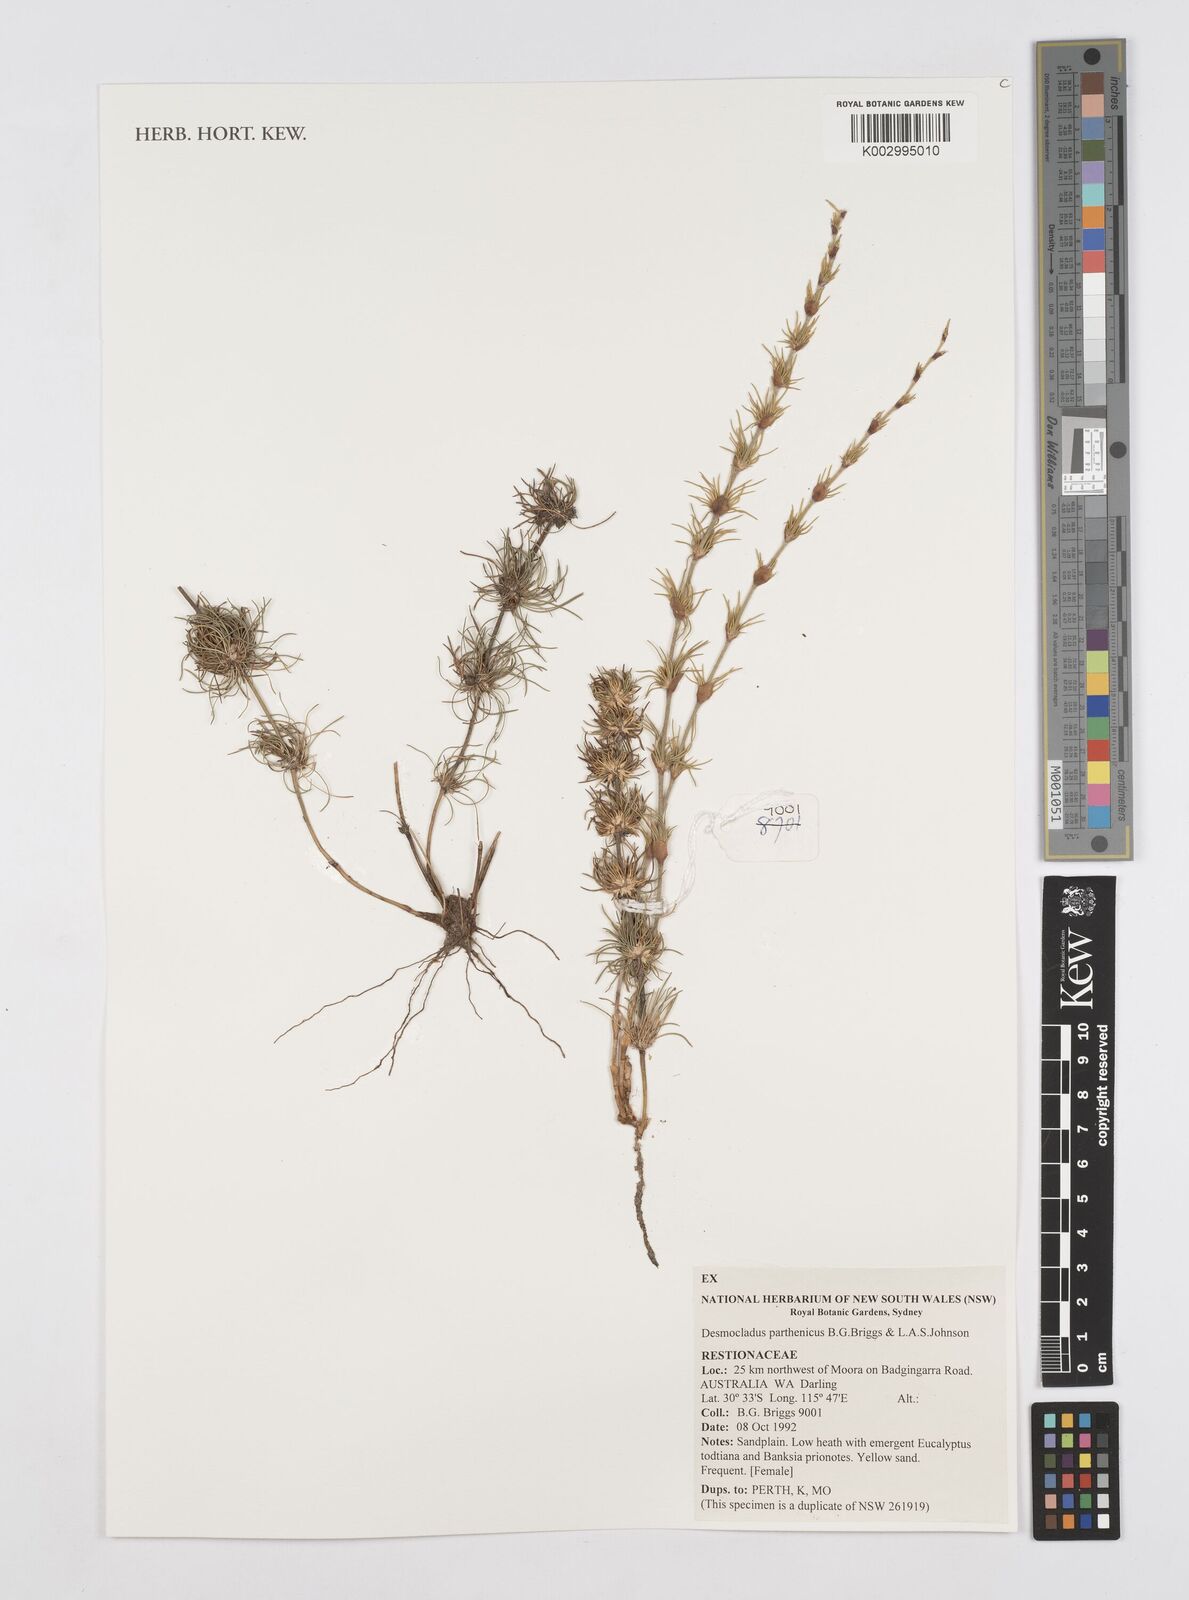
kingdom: Plantae
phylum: Tracheophyta
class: Liliopsida
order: Poales
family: Restionaceae
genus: Desmocladus
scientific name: Desmocladus parthenicus
